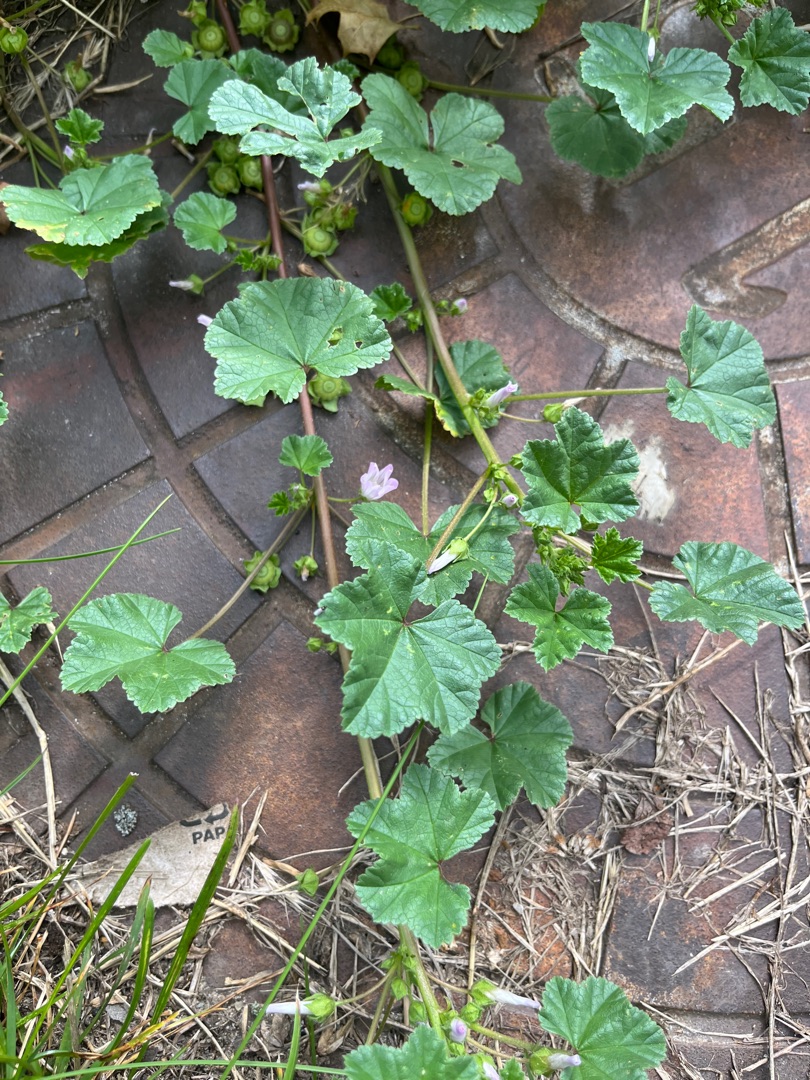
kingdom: Plantae
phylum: Tracheophyta
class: Magnoliopsida
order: Malvales
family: Malvaceae
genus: Malva
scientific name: Malva neglecta
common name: Rundbladet katost
